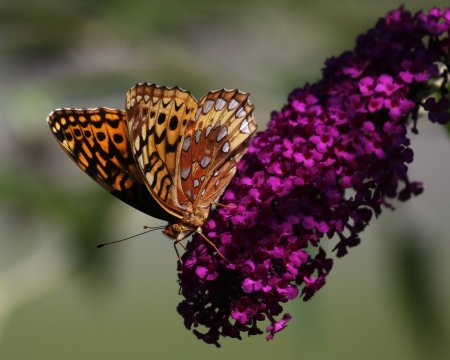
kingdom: Animalia
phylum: Arthropoda
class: Insecta
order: Lepidoptera
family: Nymphalidae
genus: Speyeria
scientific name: Speyeria cybele
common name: Great Spangled Fritillary
